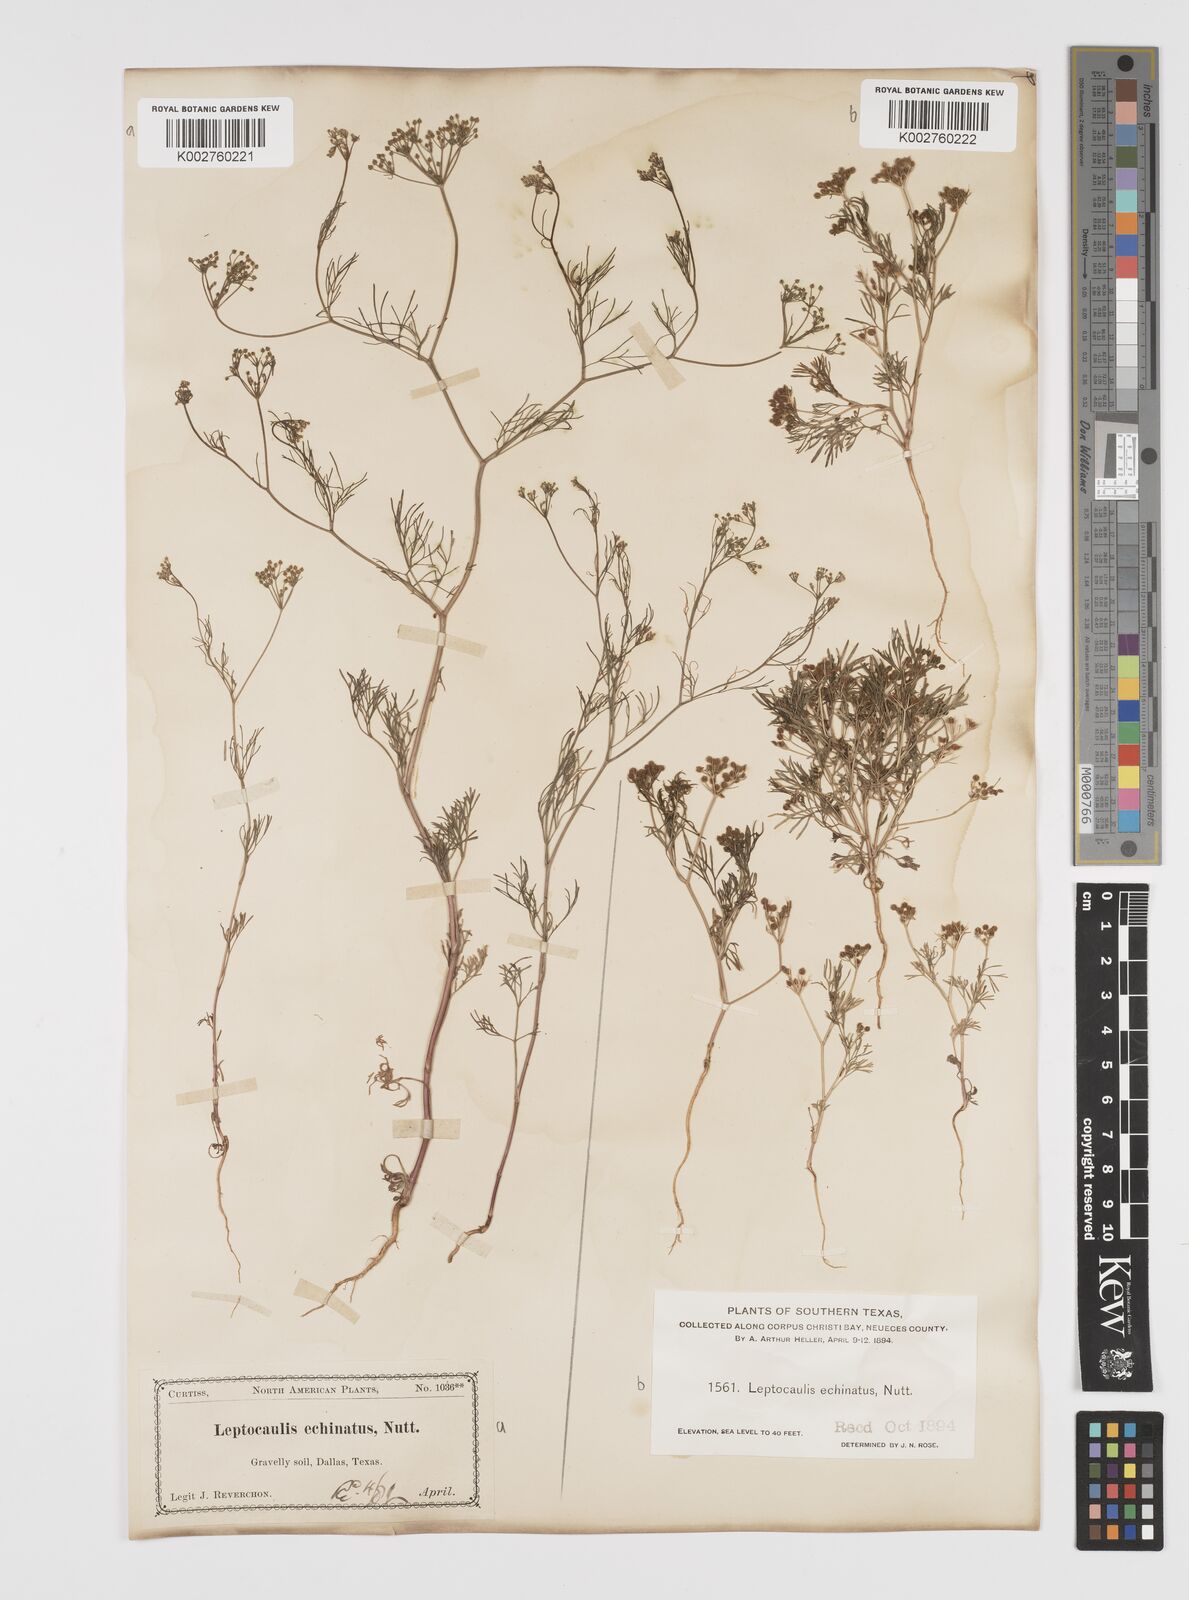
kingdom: Plantae
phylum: Tracheophyta
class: Magnoliopsida
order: Apiales
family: Apiaceae
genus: Spermolepis
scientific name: Spermolepis echinata
